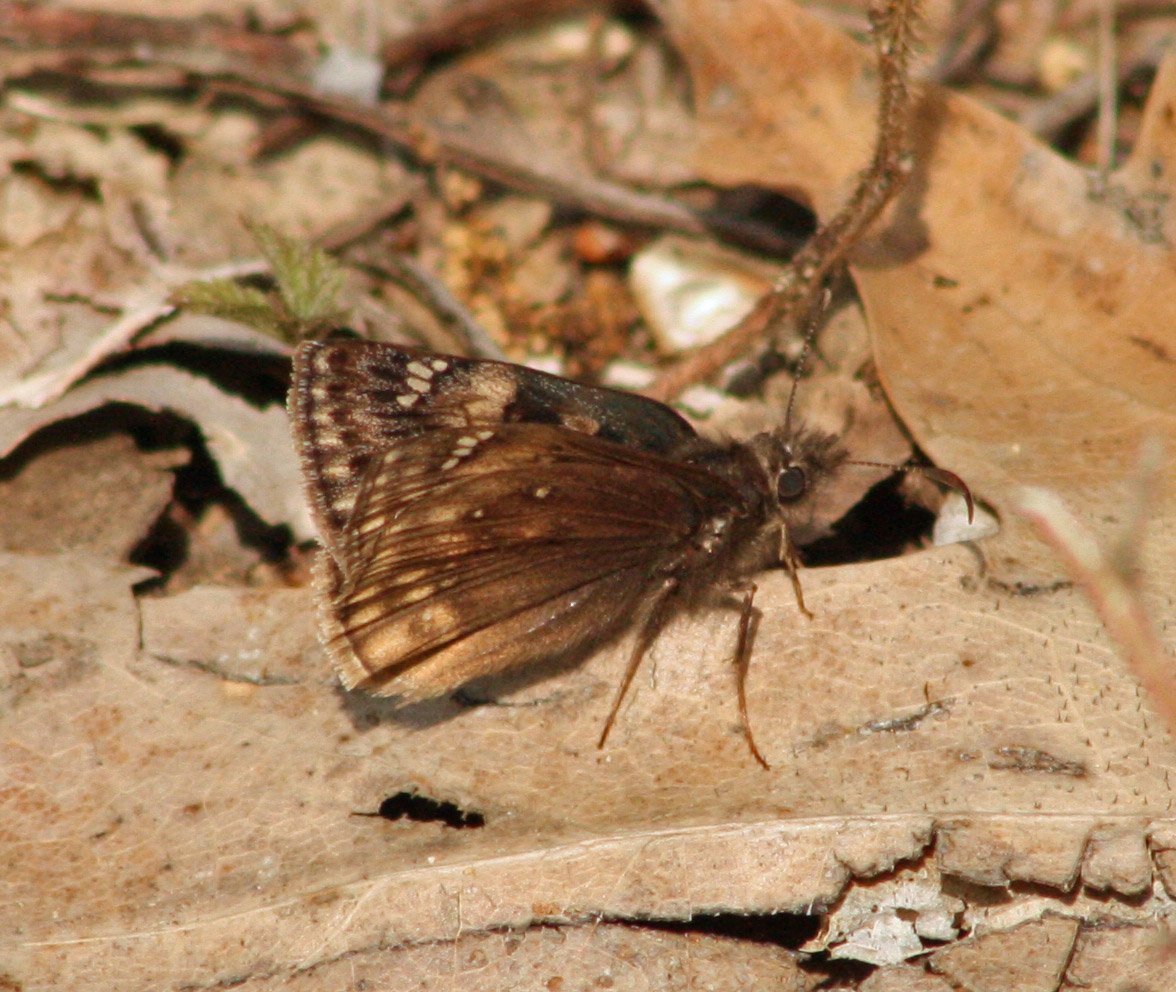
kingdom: Animalia
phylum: Arthropoda
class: Insecta
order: Lepidoptera
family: Hesperiidae
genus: Gesta
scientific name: Gesta
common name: Juvenal's Duskywing
